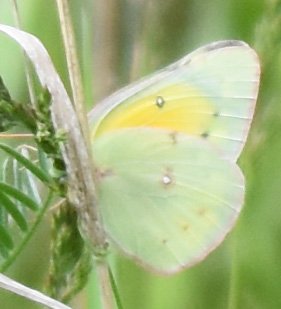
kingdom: Animalia
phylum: Arthropoda
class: Insecta
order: Lepidoptera
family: Pieridae
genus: Colias
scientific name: Colias eurytheme
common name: Orange Sulphur
